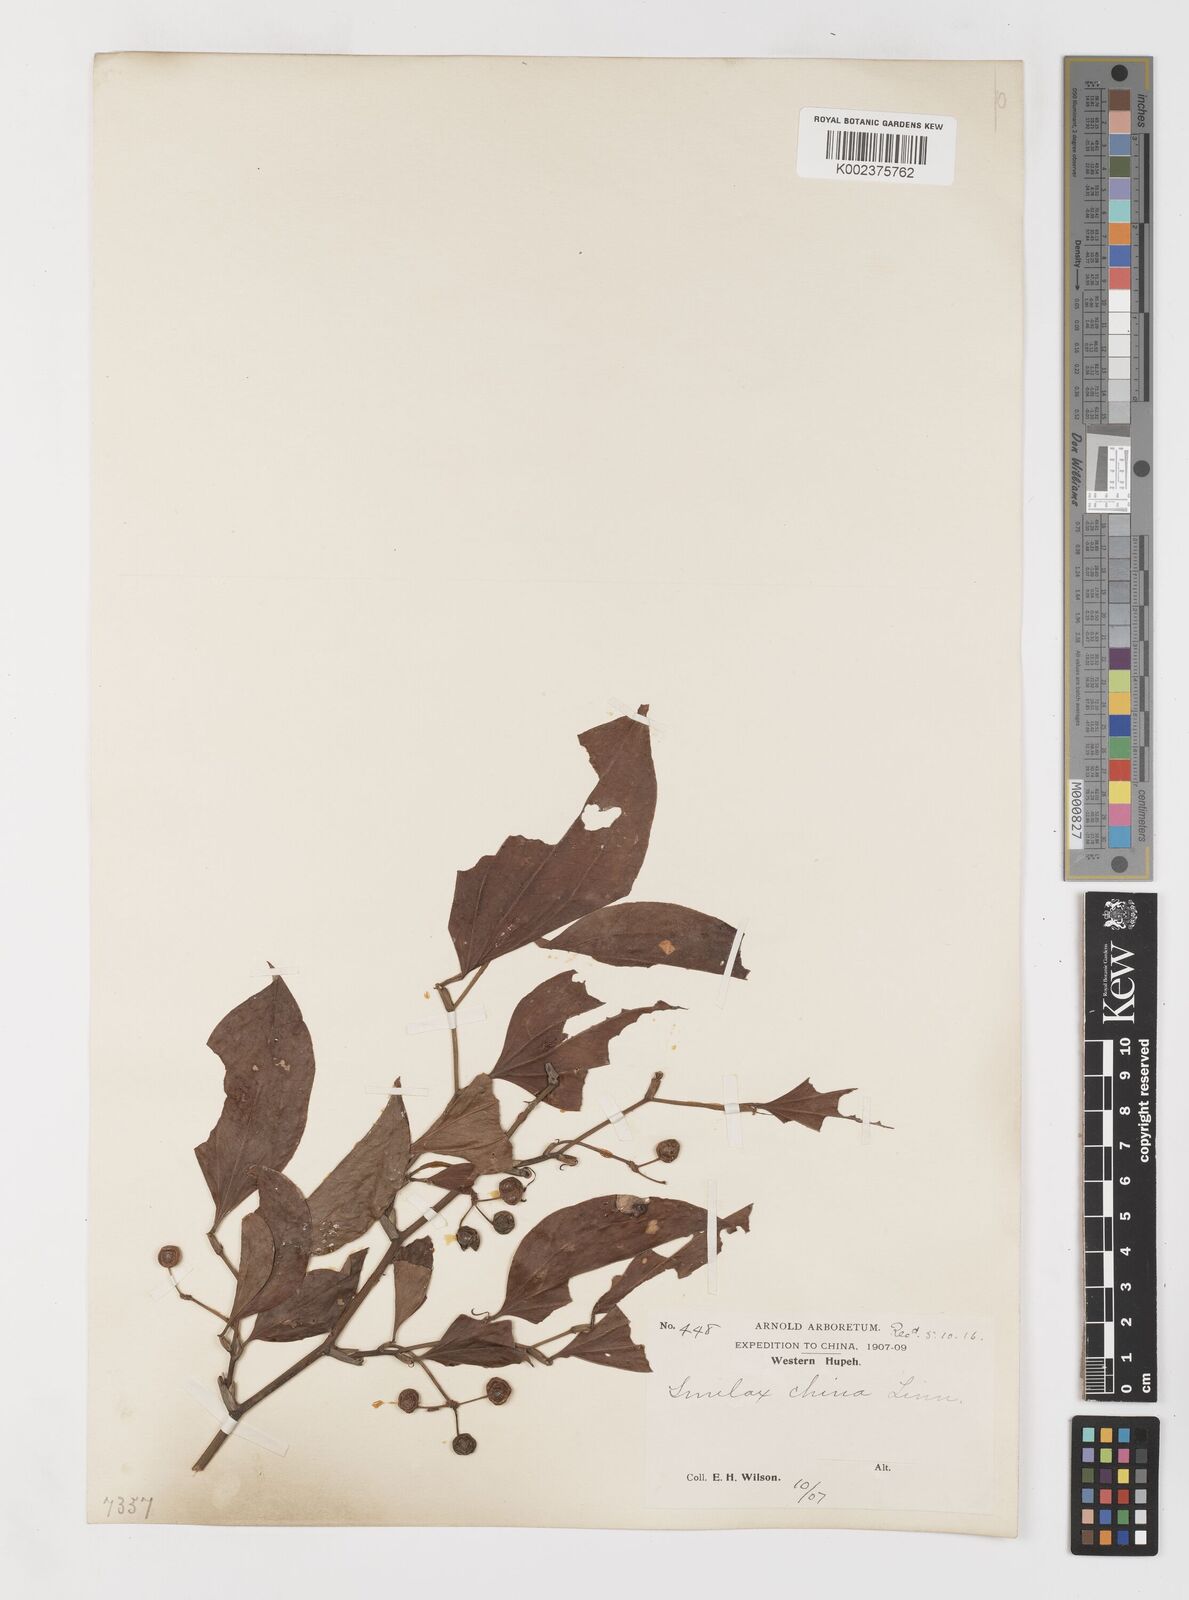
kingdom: Plantae
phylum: Tracheophyta
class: Liliopsida
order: Liliales
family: Smilacaceae
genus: Smilax
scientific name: Smilax china
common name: Chinaroot
